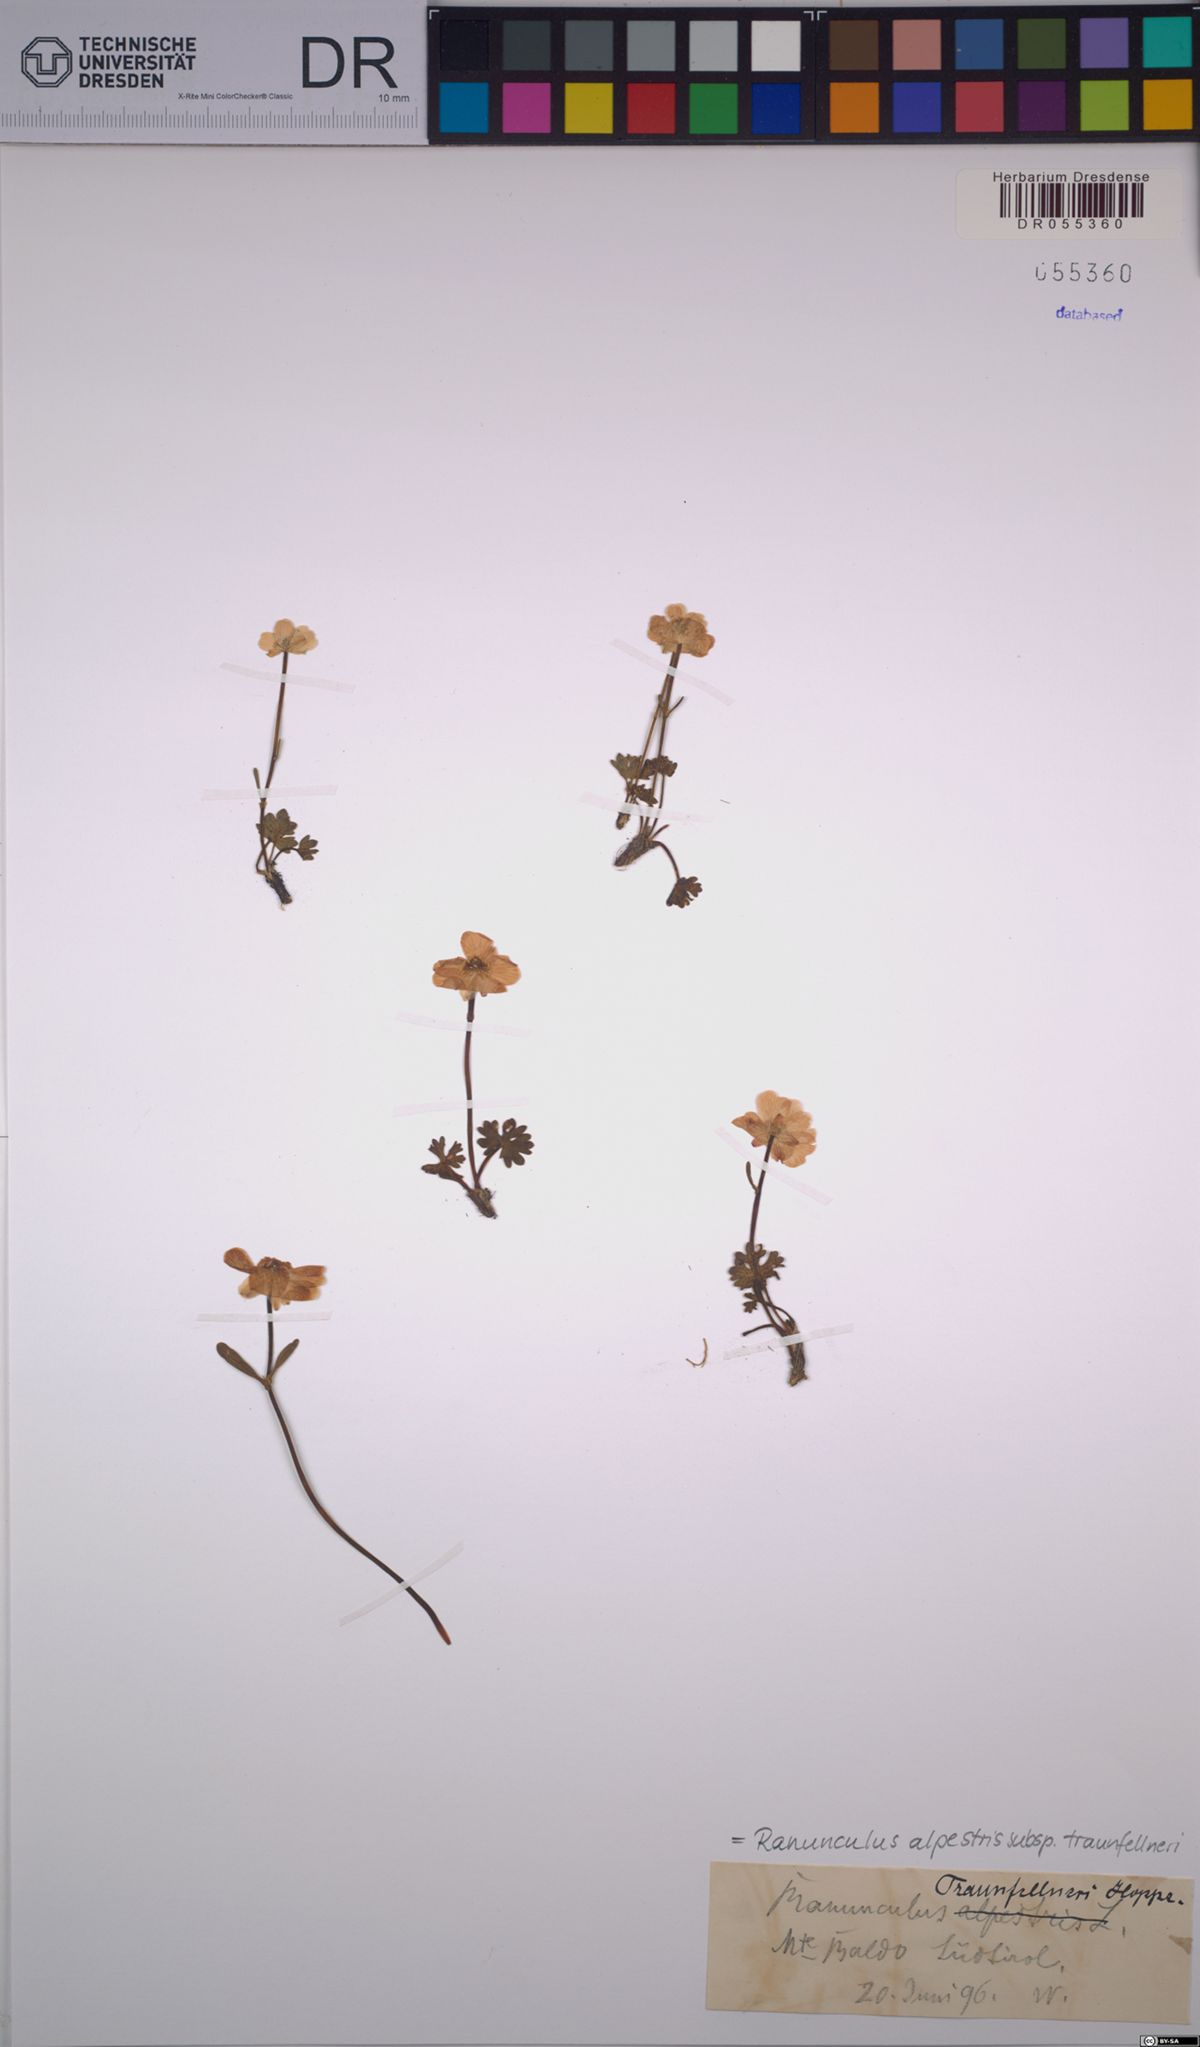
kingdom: Plantae
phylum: Tracheophyta
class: Magnoliopsida
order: Ranunculales
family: Ranunculaceae
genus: Ranunculus
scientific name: Ranunculus traunfellneri
